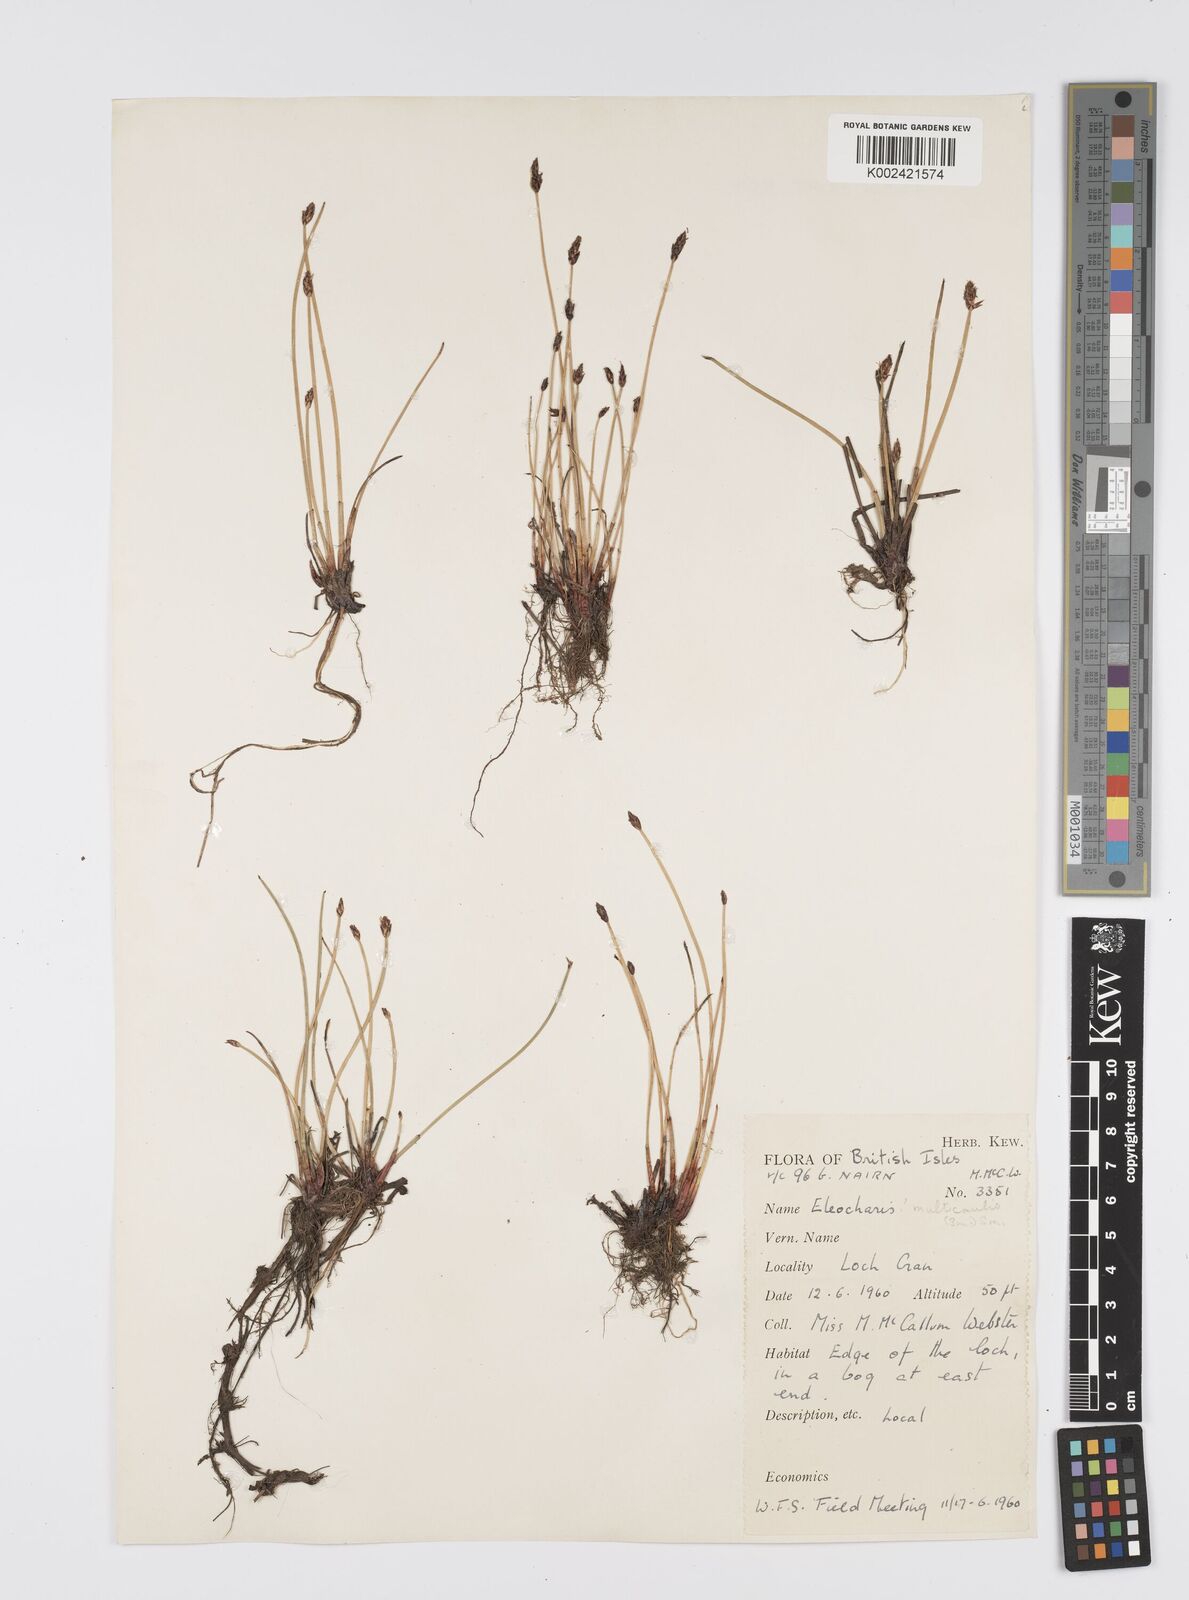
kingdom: Plantae
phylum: Tracheophyta
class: Liliopsida
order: Poales
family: Cyperaceae
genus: Eleocharis
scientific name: Eleocharis multicaulis
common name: Many-stalked spike-rush
